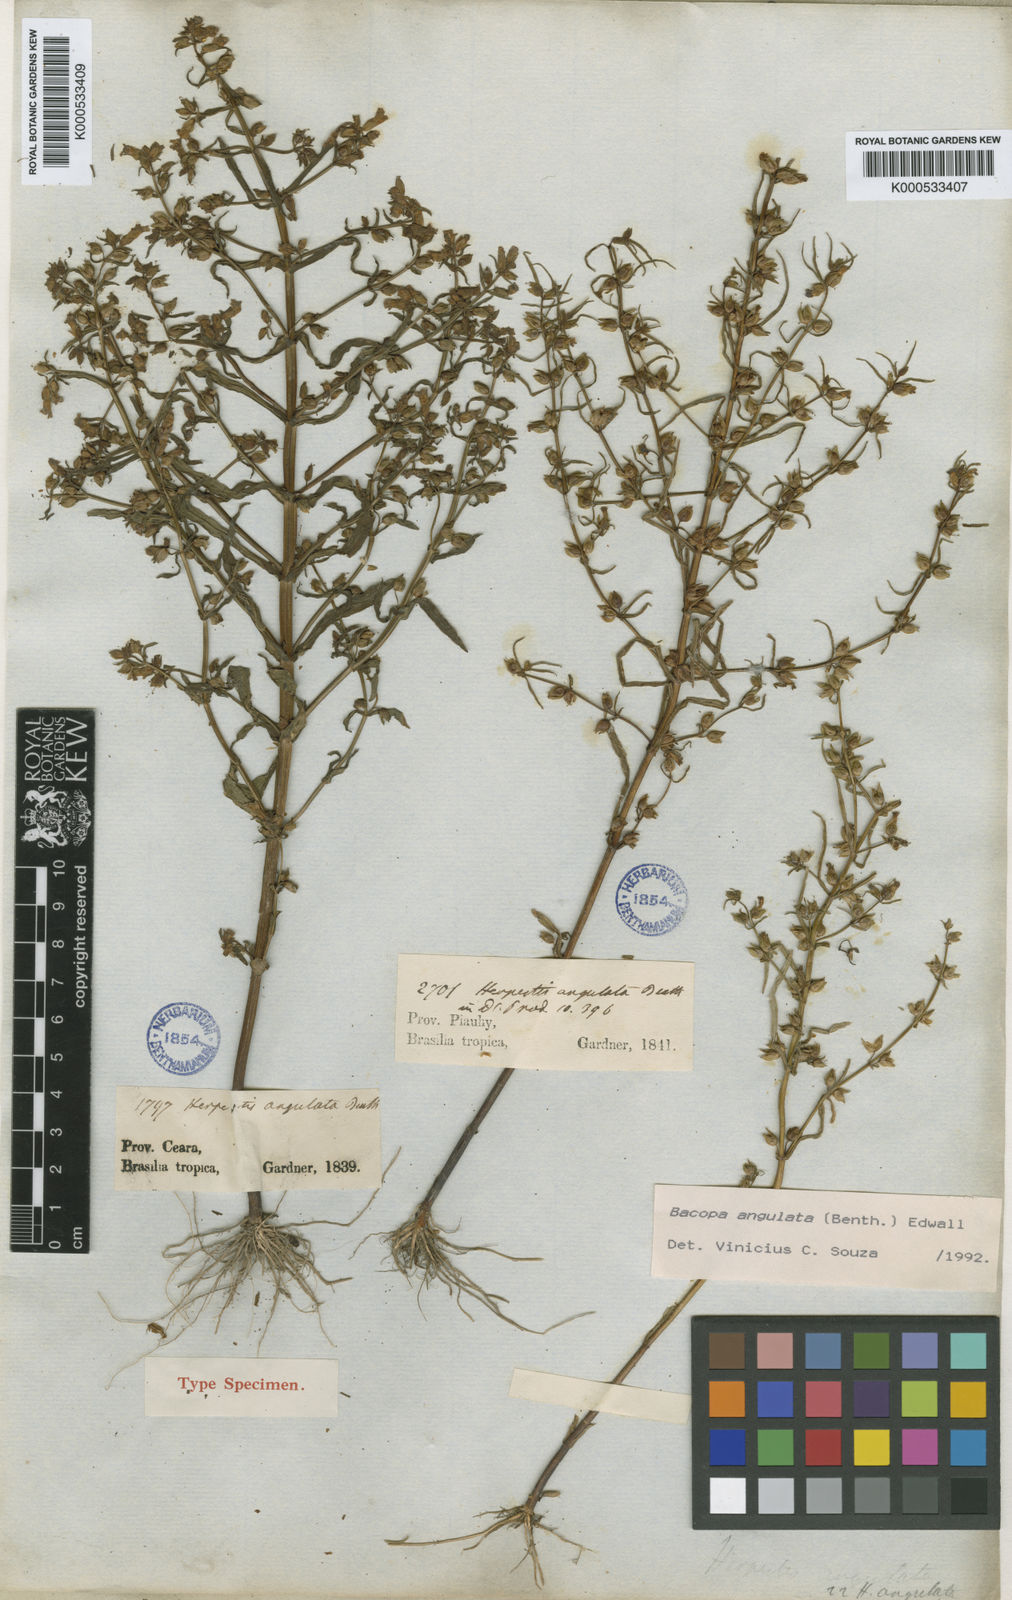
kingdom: Plantae
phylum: Tracheophyta
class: Magnoliopsida
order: Lamiales
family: Plantaginaceae
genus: Bacopa
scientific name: Bacopa angulata
